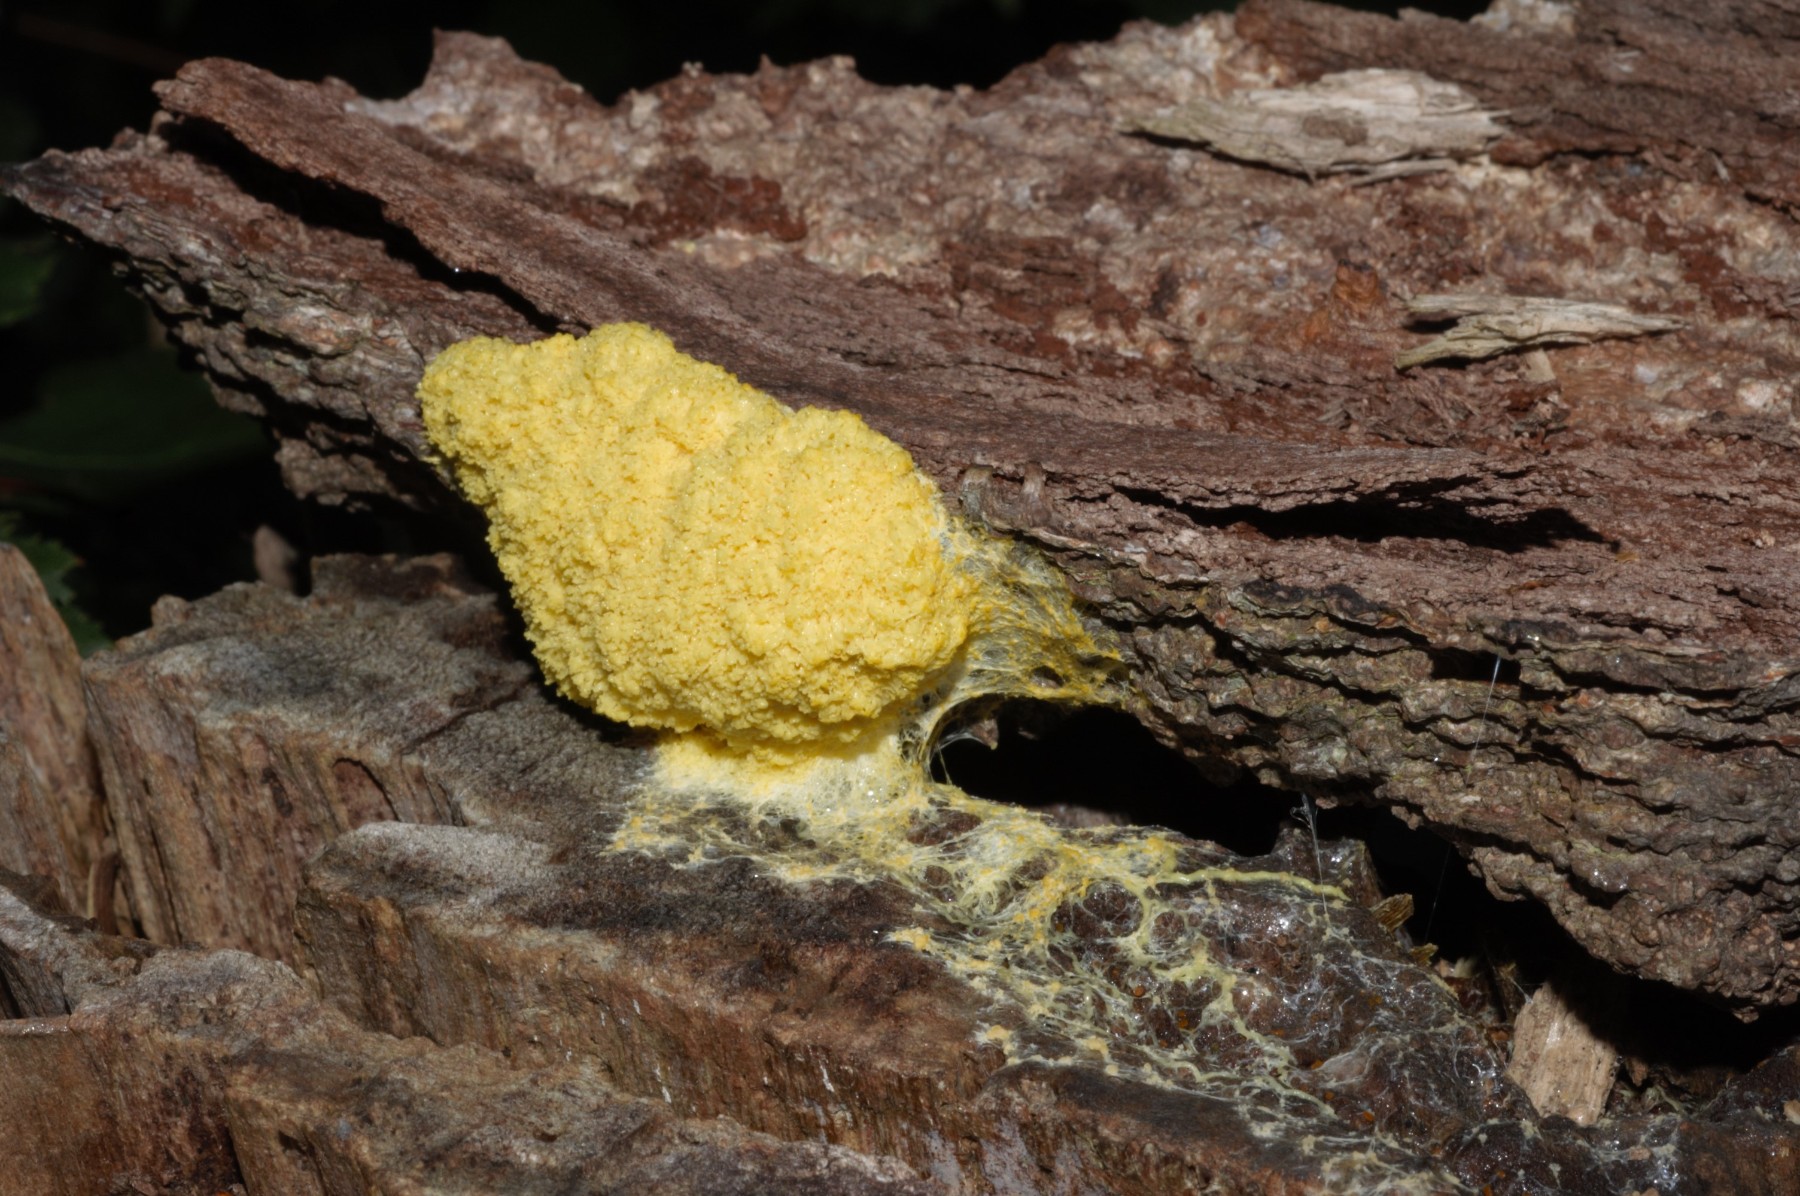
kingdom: Protozoa
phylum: Mycetozoa
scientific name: Mycetozoa
